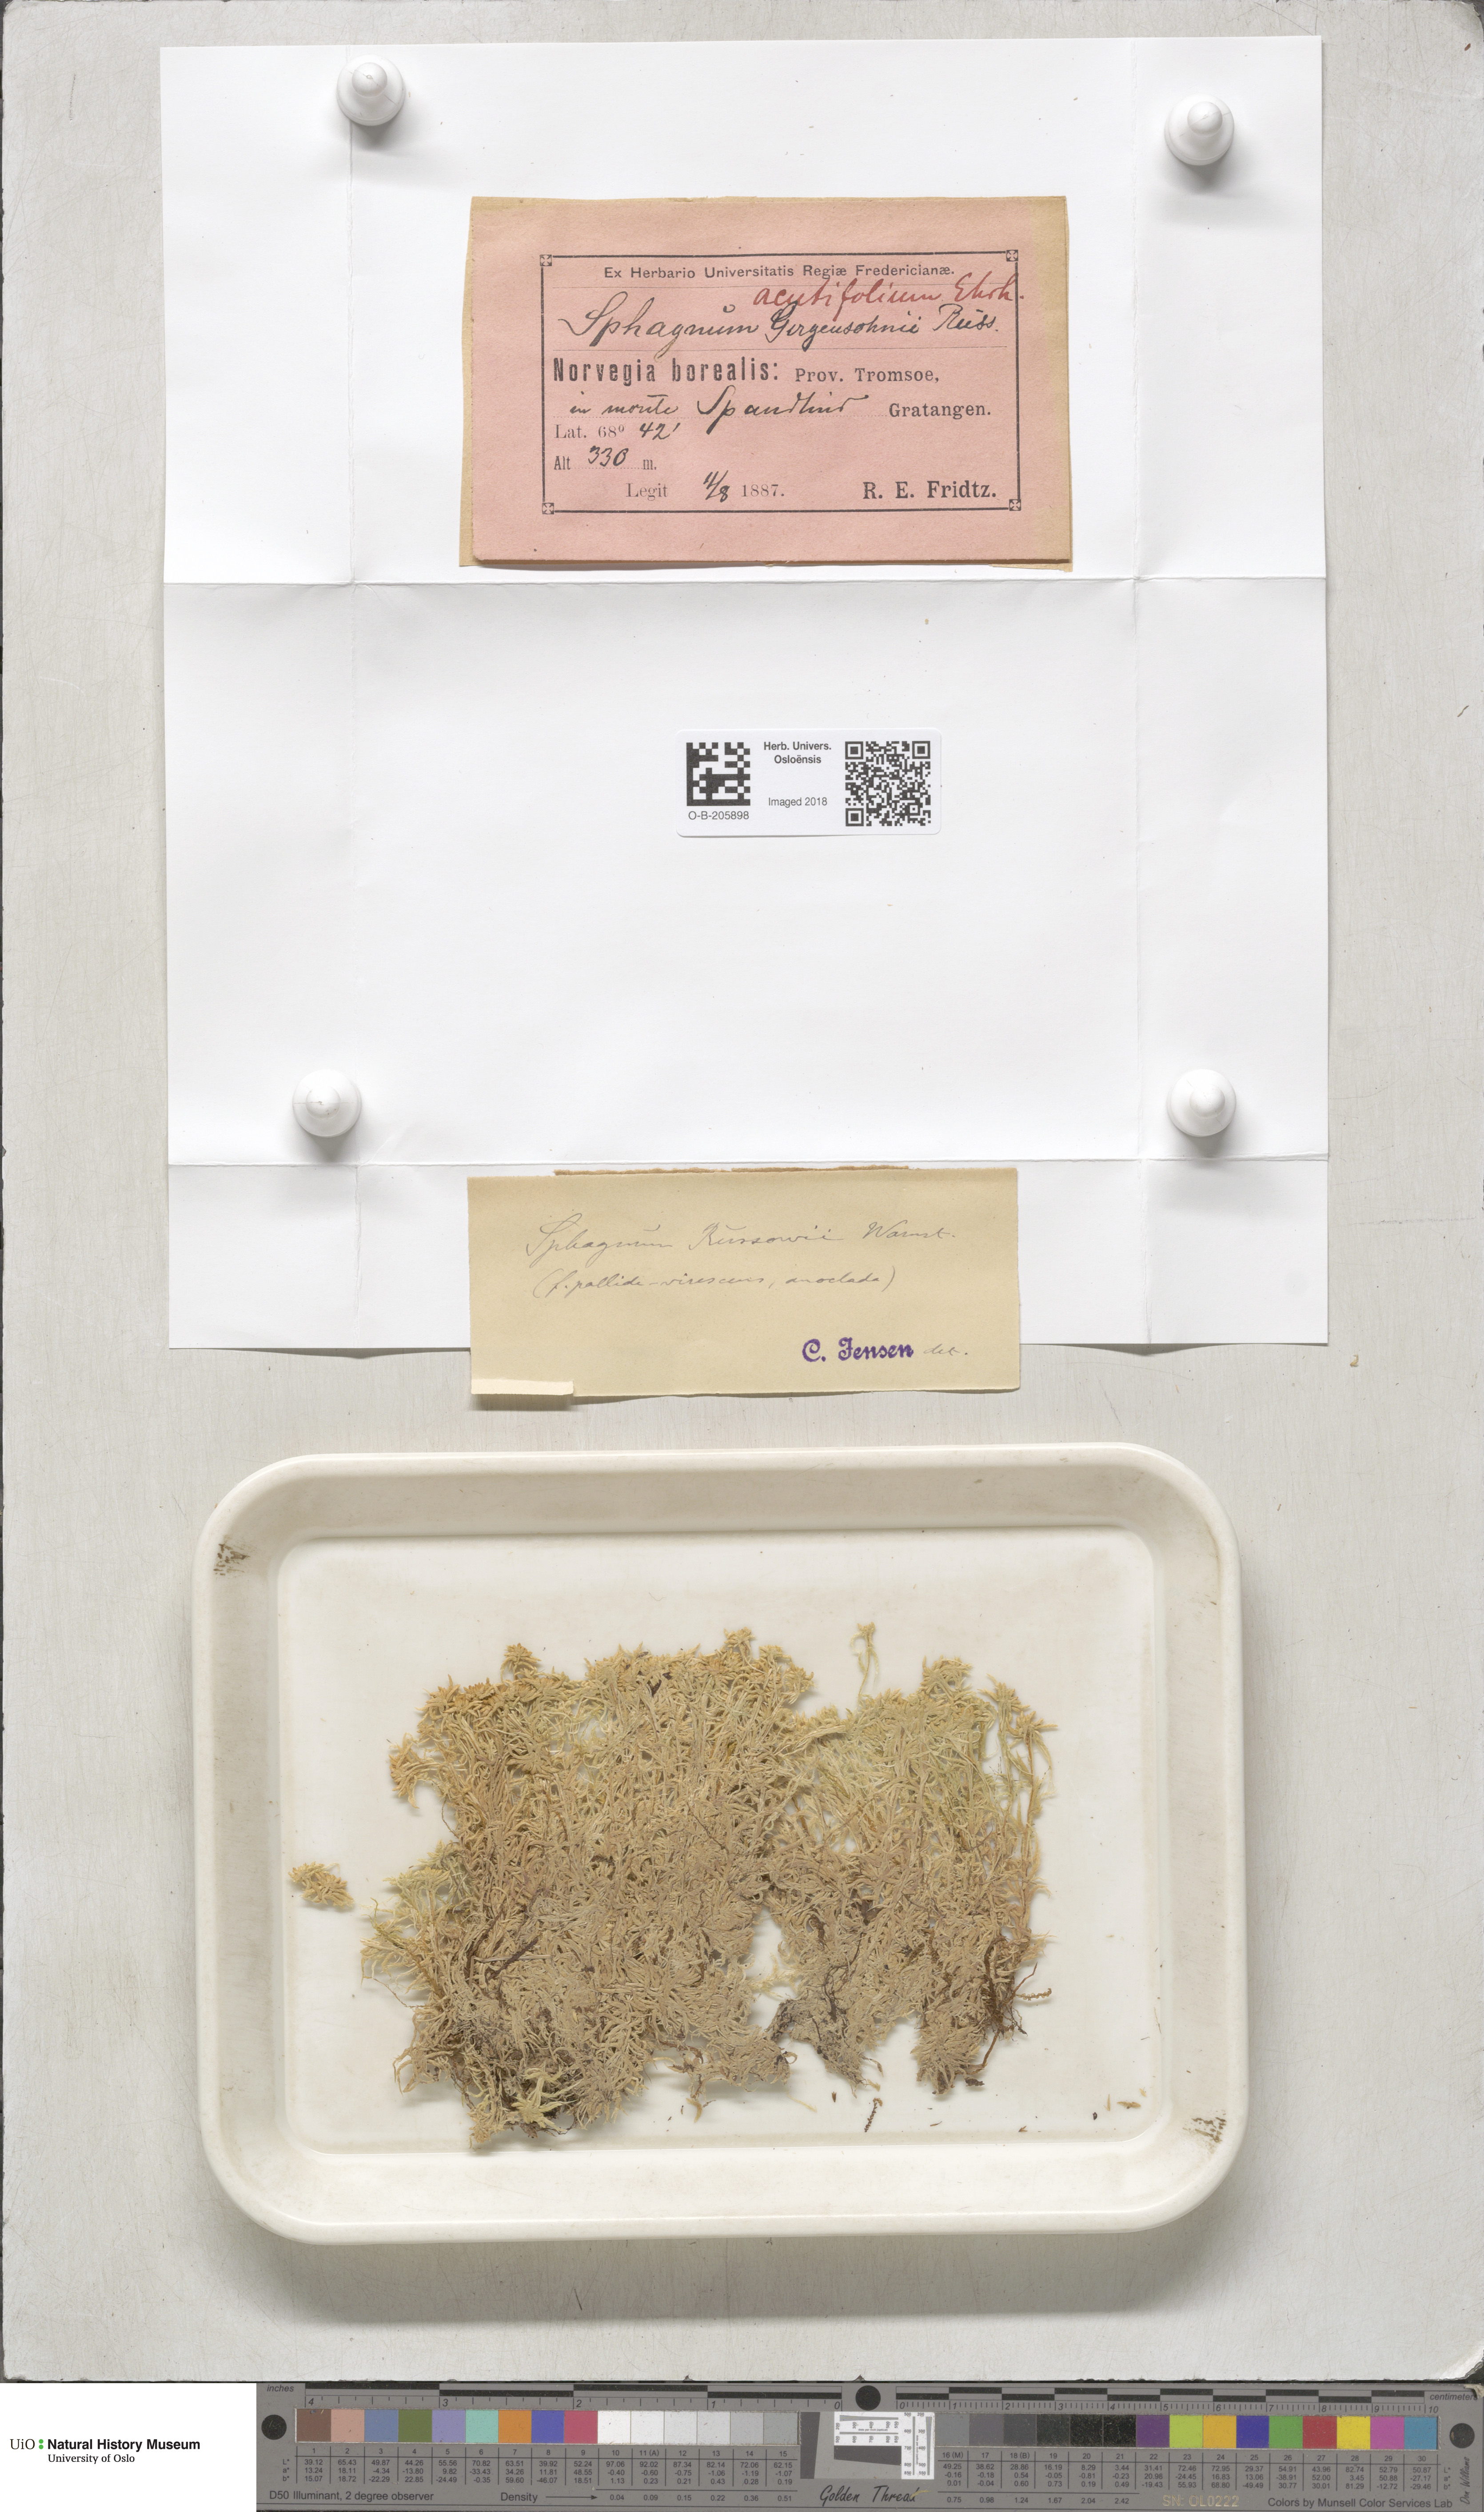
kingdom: Plantae
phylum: Bryophyta
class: Sphagnopsida
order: Sphagnales
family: Sphagnaceae
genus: Sphagnum
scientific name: Sphagnum russowii
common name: Russow's peat moss
